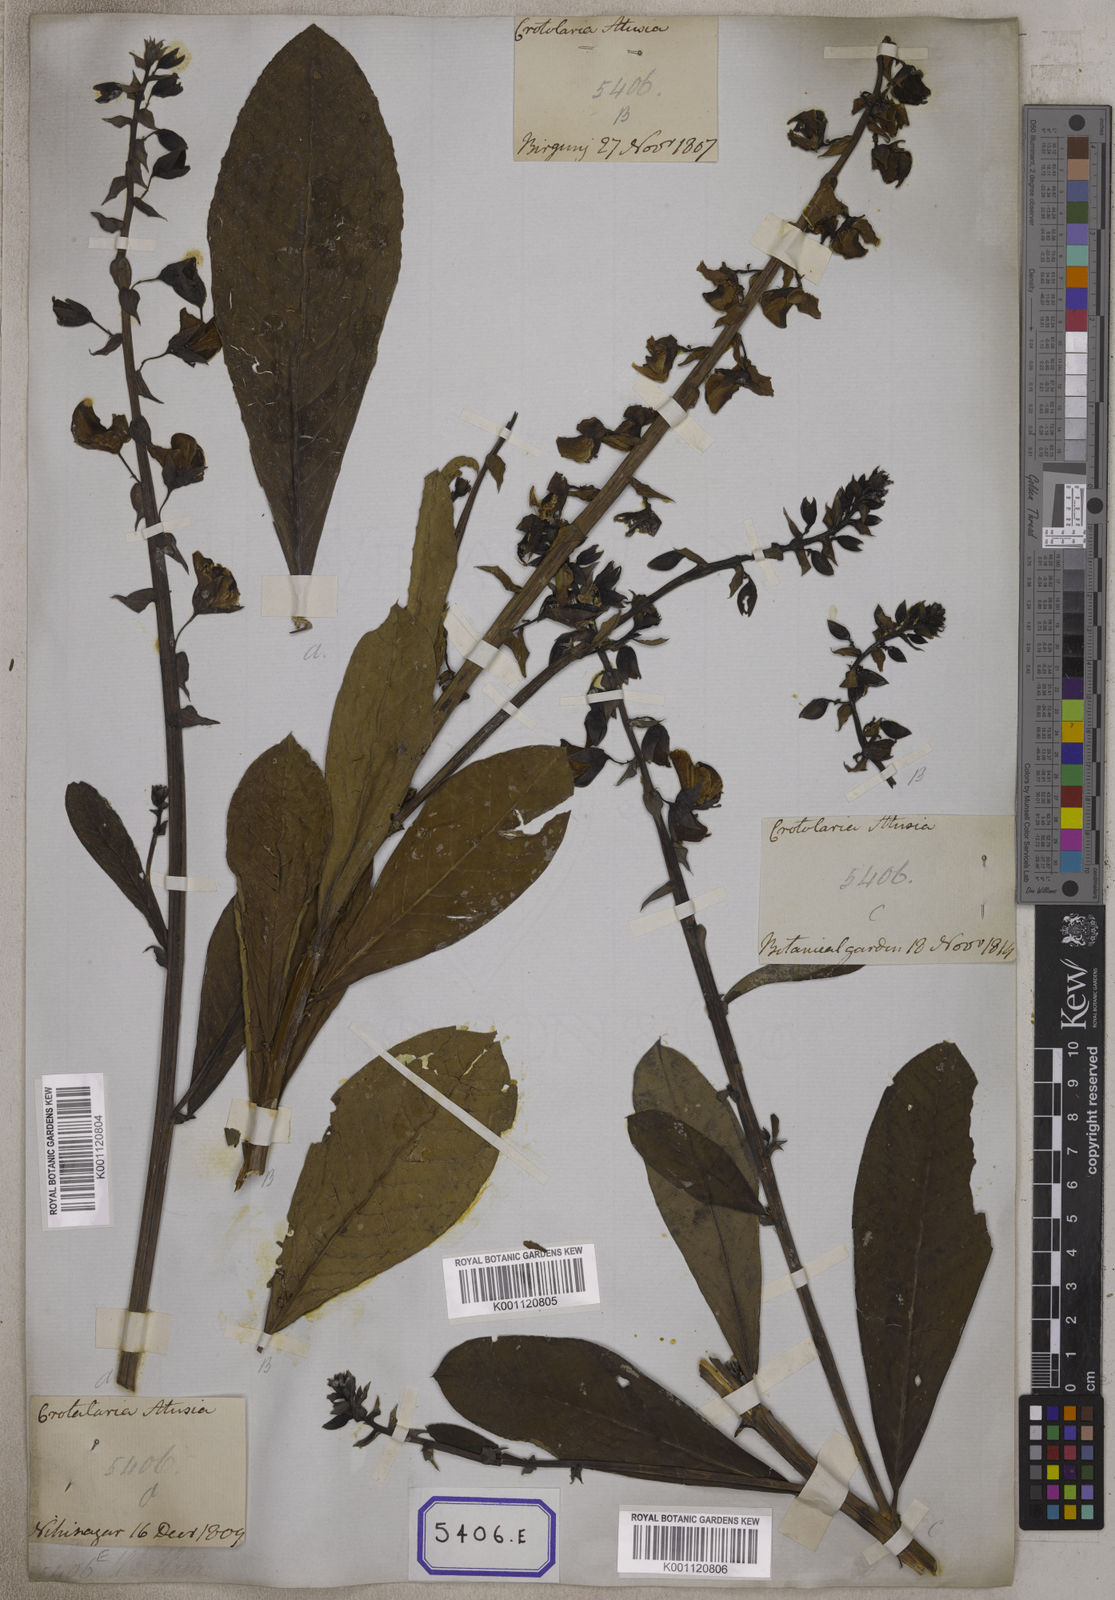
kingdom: Plantae
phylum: Tracheophyta
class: Magnoliopsida
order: Fabales
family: Fabaceae
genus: Crotalaria
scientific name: Crotalaria spectabilis
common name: Showy rattlebox
